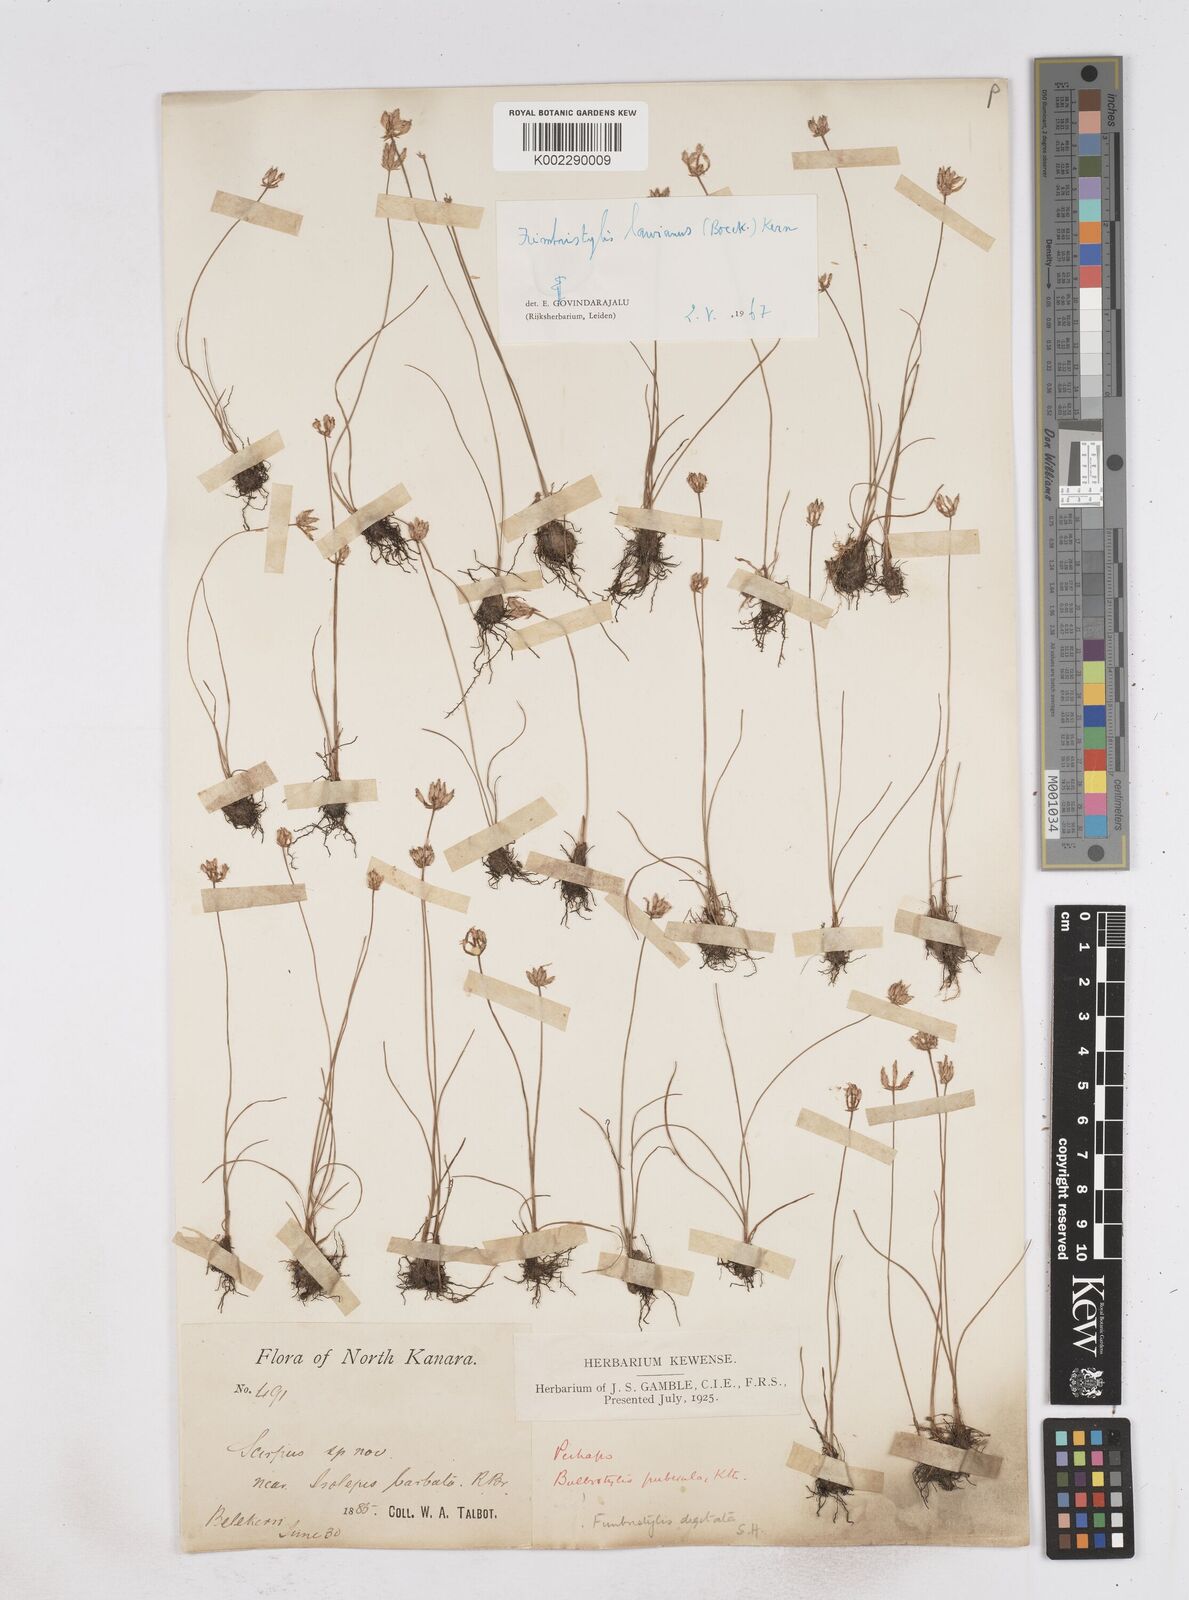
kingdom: Plantae
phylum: Tracheophyta
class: Liliopsida
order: Poales
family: Cyperaceae
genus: Fimbristylis
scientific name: Fimbristylis lawiana
